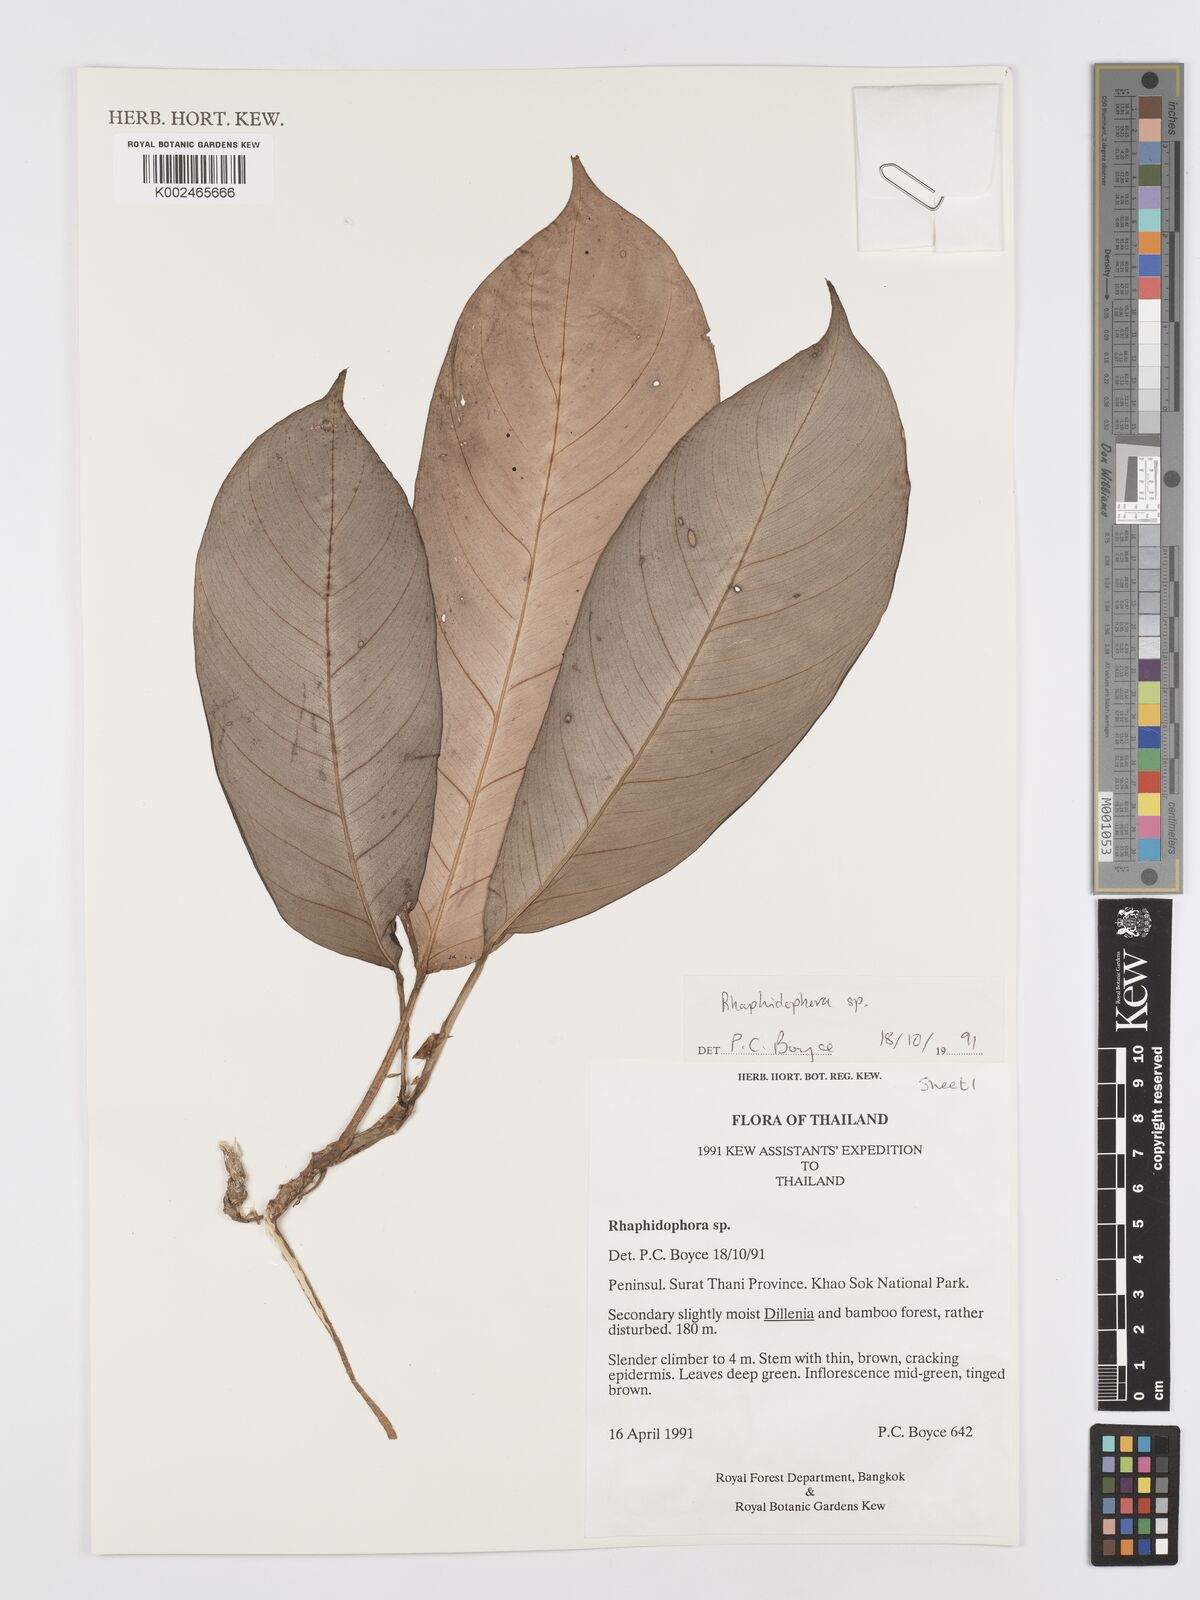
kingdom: Plantae
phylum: Tracheophyta
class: Liliopsida
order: Alismatales
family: Araceae
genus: Rhaphidophora
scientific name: Rhaphidophora lobbii
